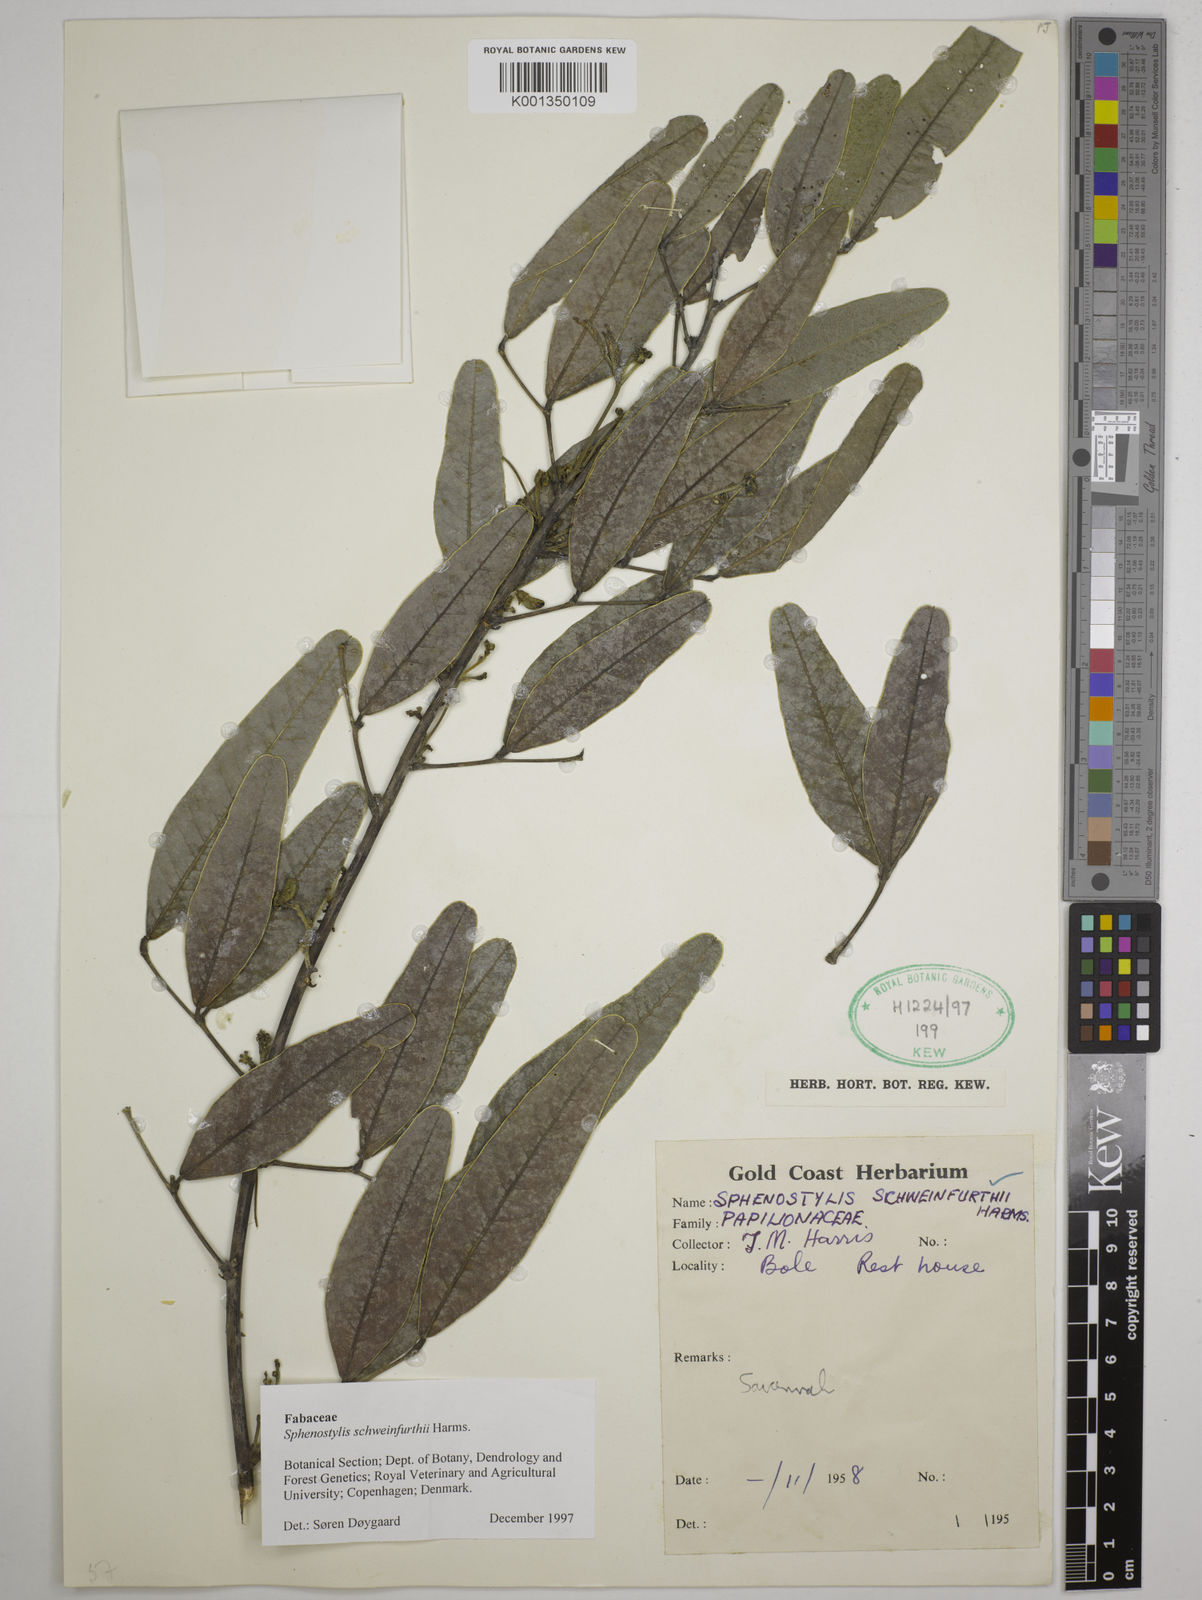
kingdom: Plantae
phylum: Tracheophyta
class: Magnoliopsida
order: Fabales
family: Fabaceae
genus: Sphenostylis
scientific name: Sphenostylis schweinfurthii
